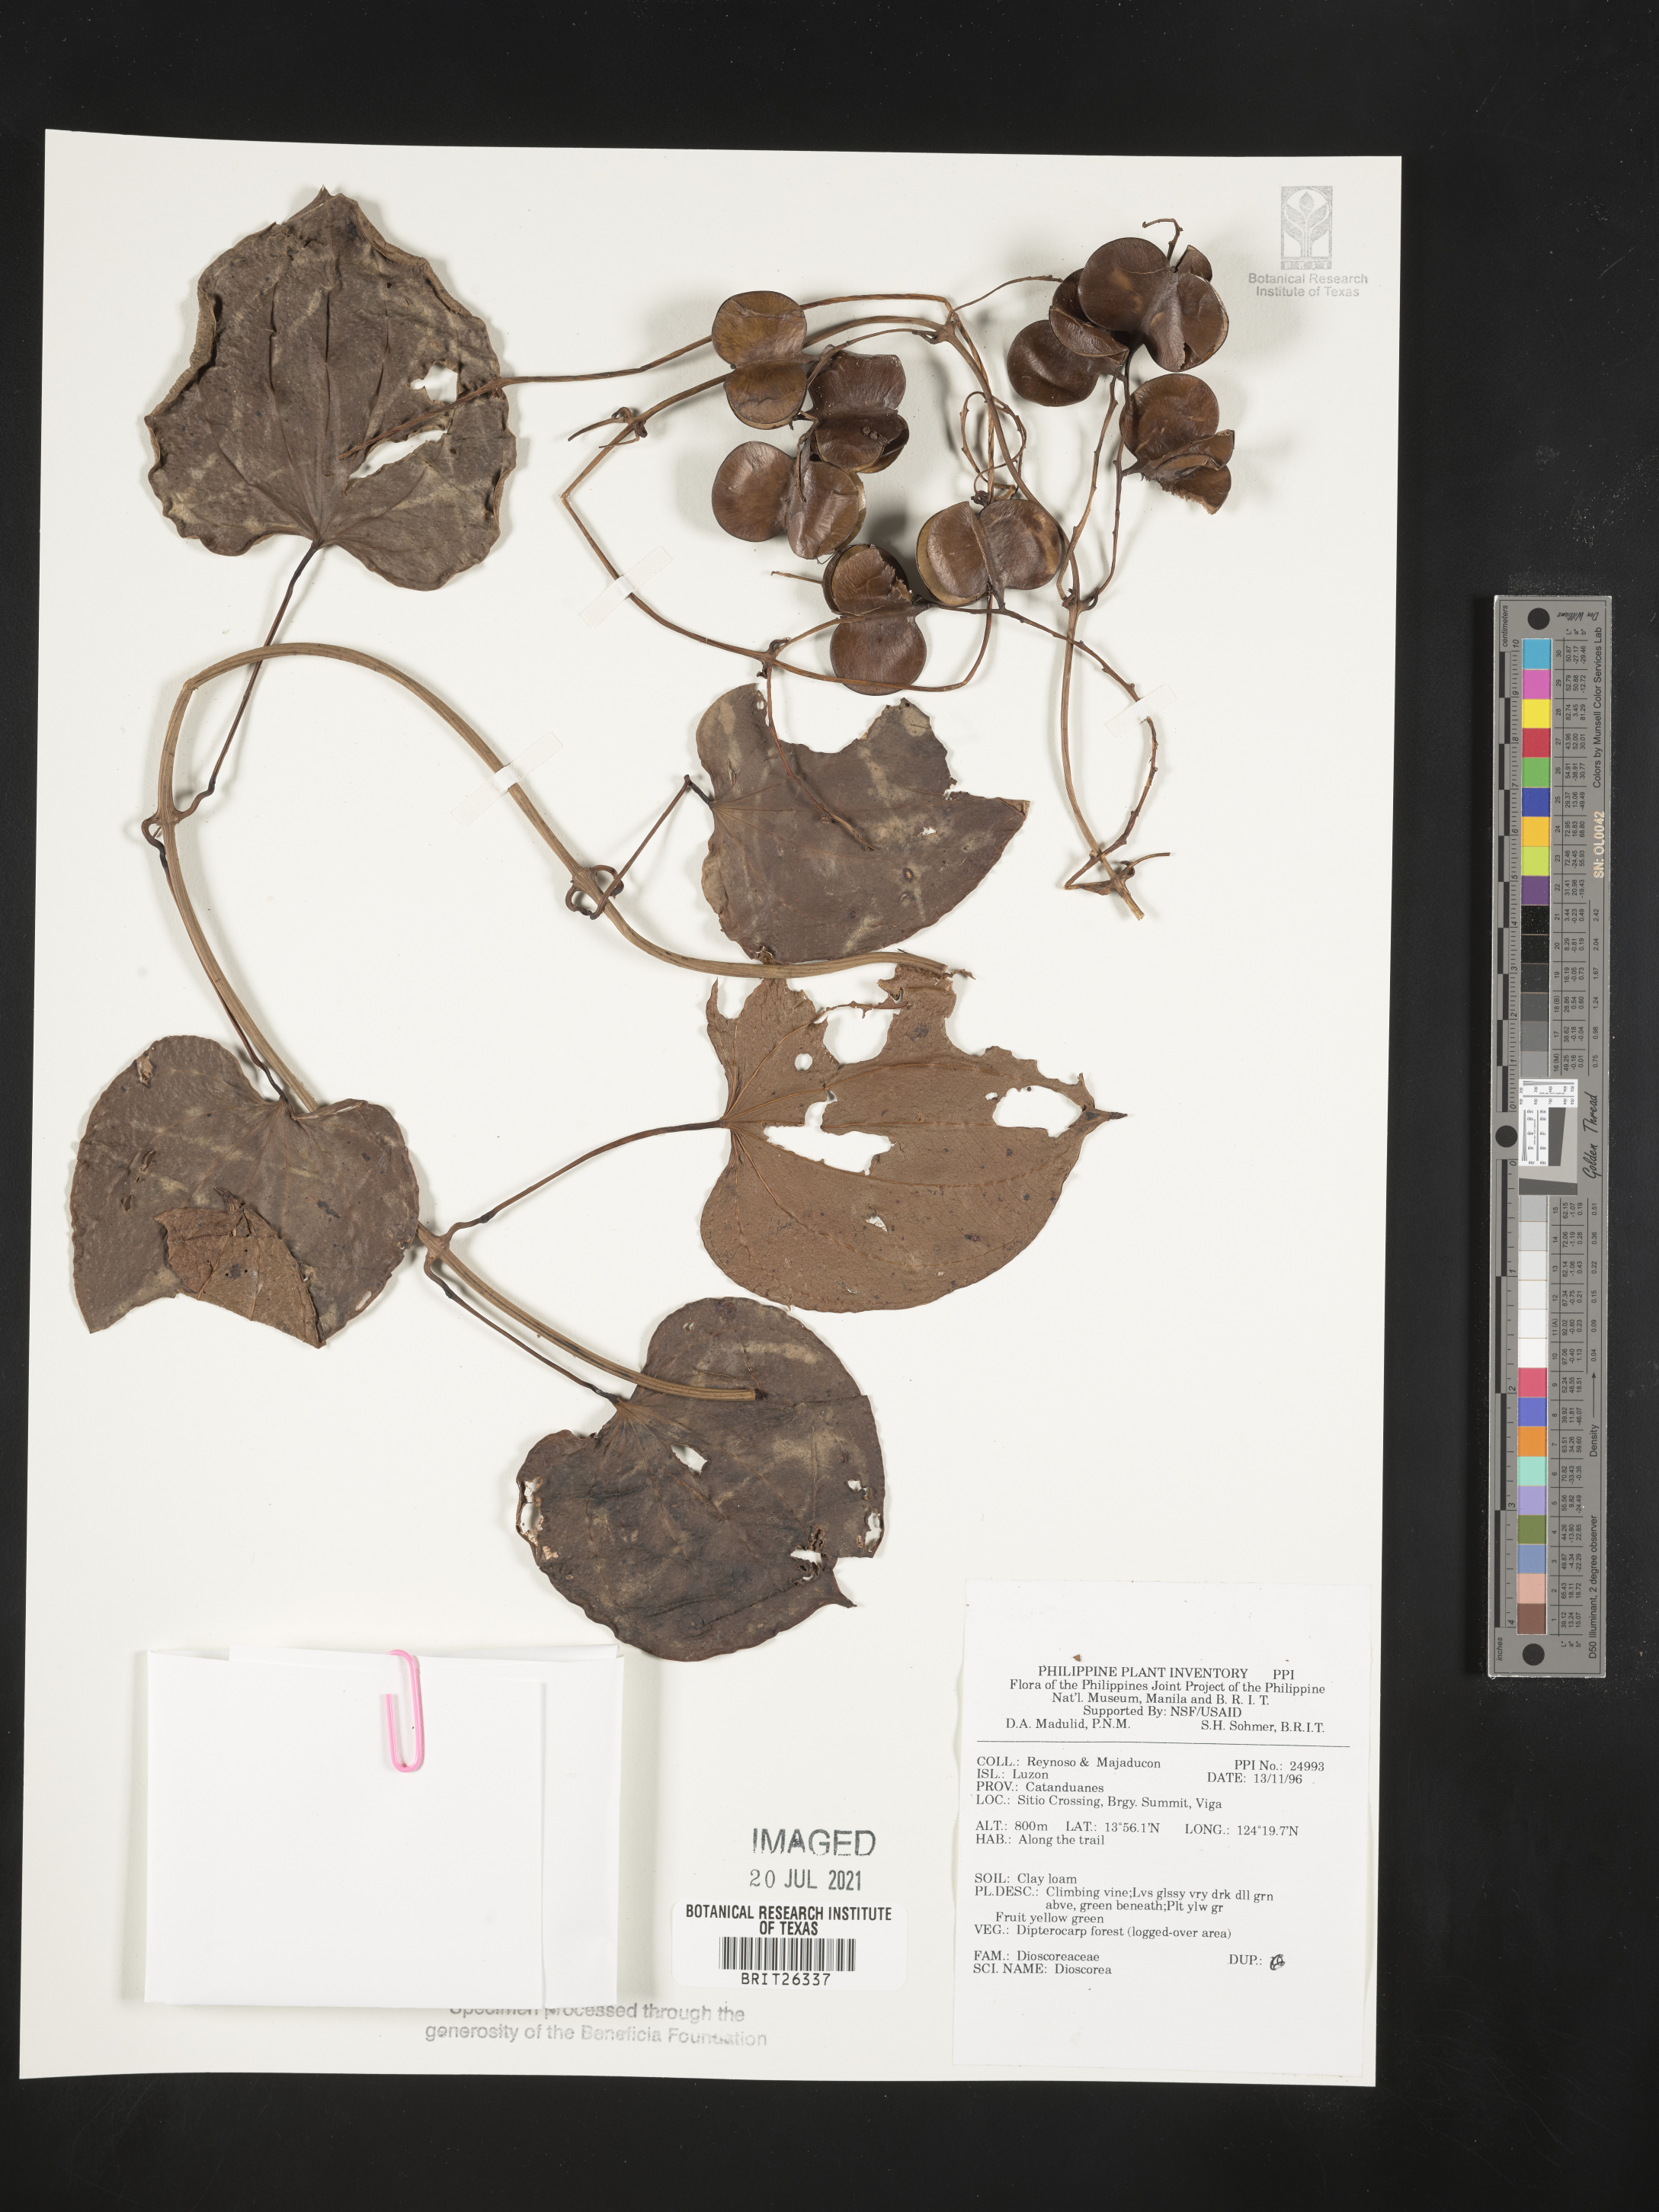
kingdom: Plantae
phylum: Tracheophyta
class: Liliopsida
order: Dioscoreales
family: Dioscoreaceae
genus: Dioscorea
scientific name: Dioscorea
